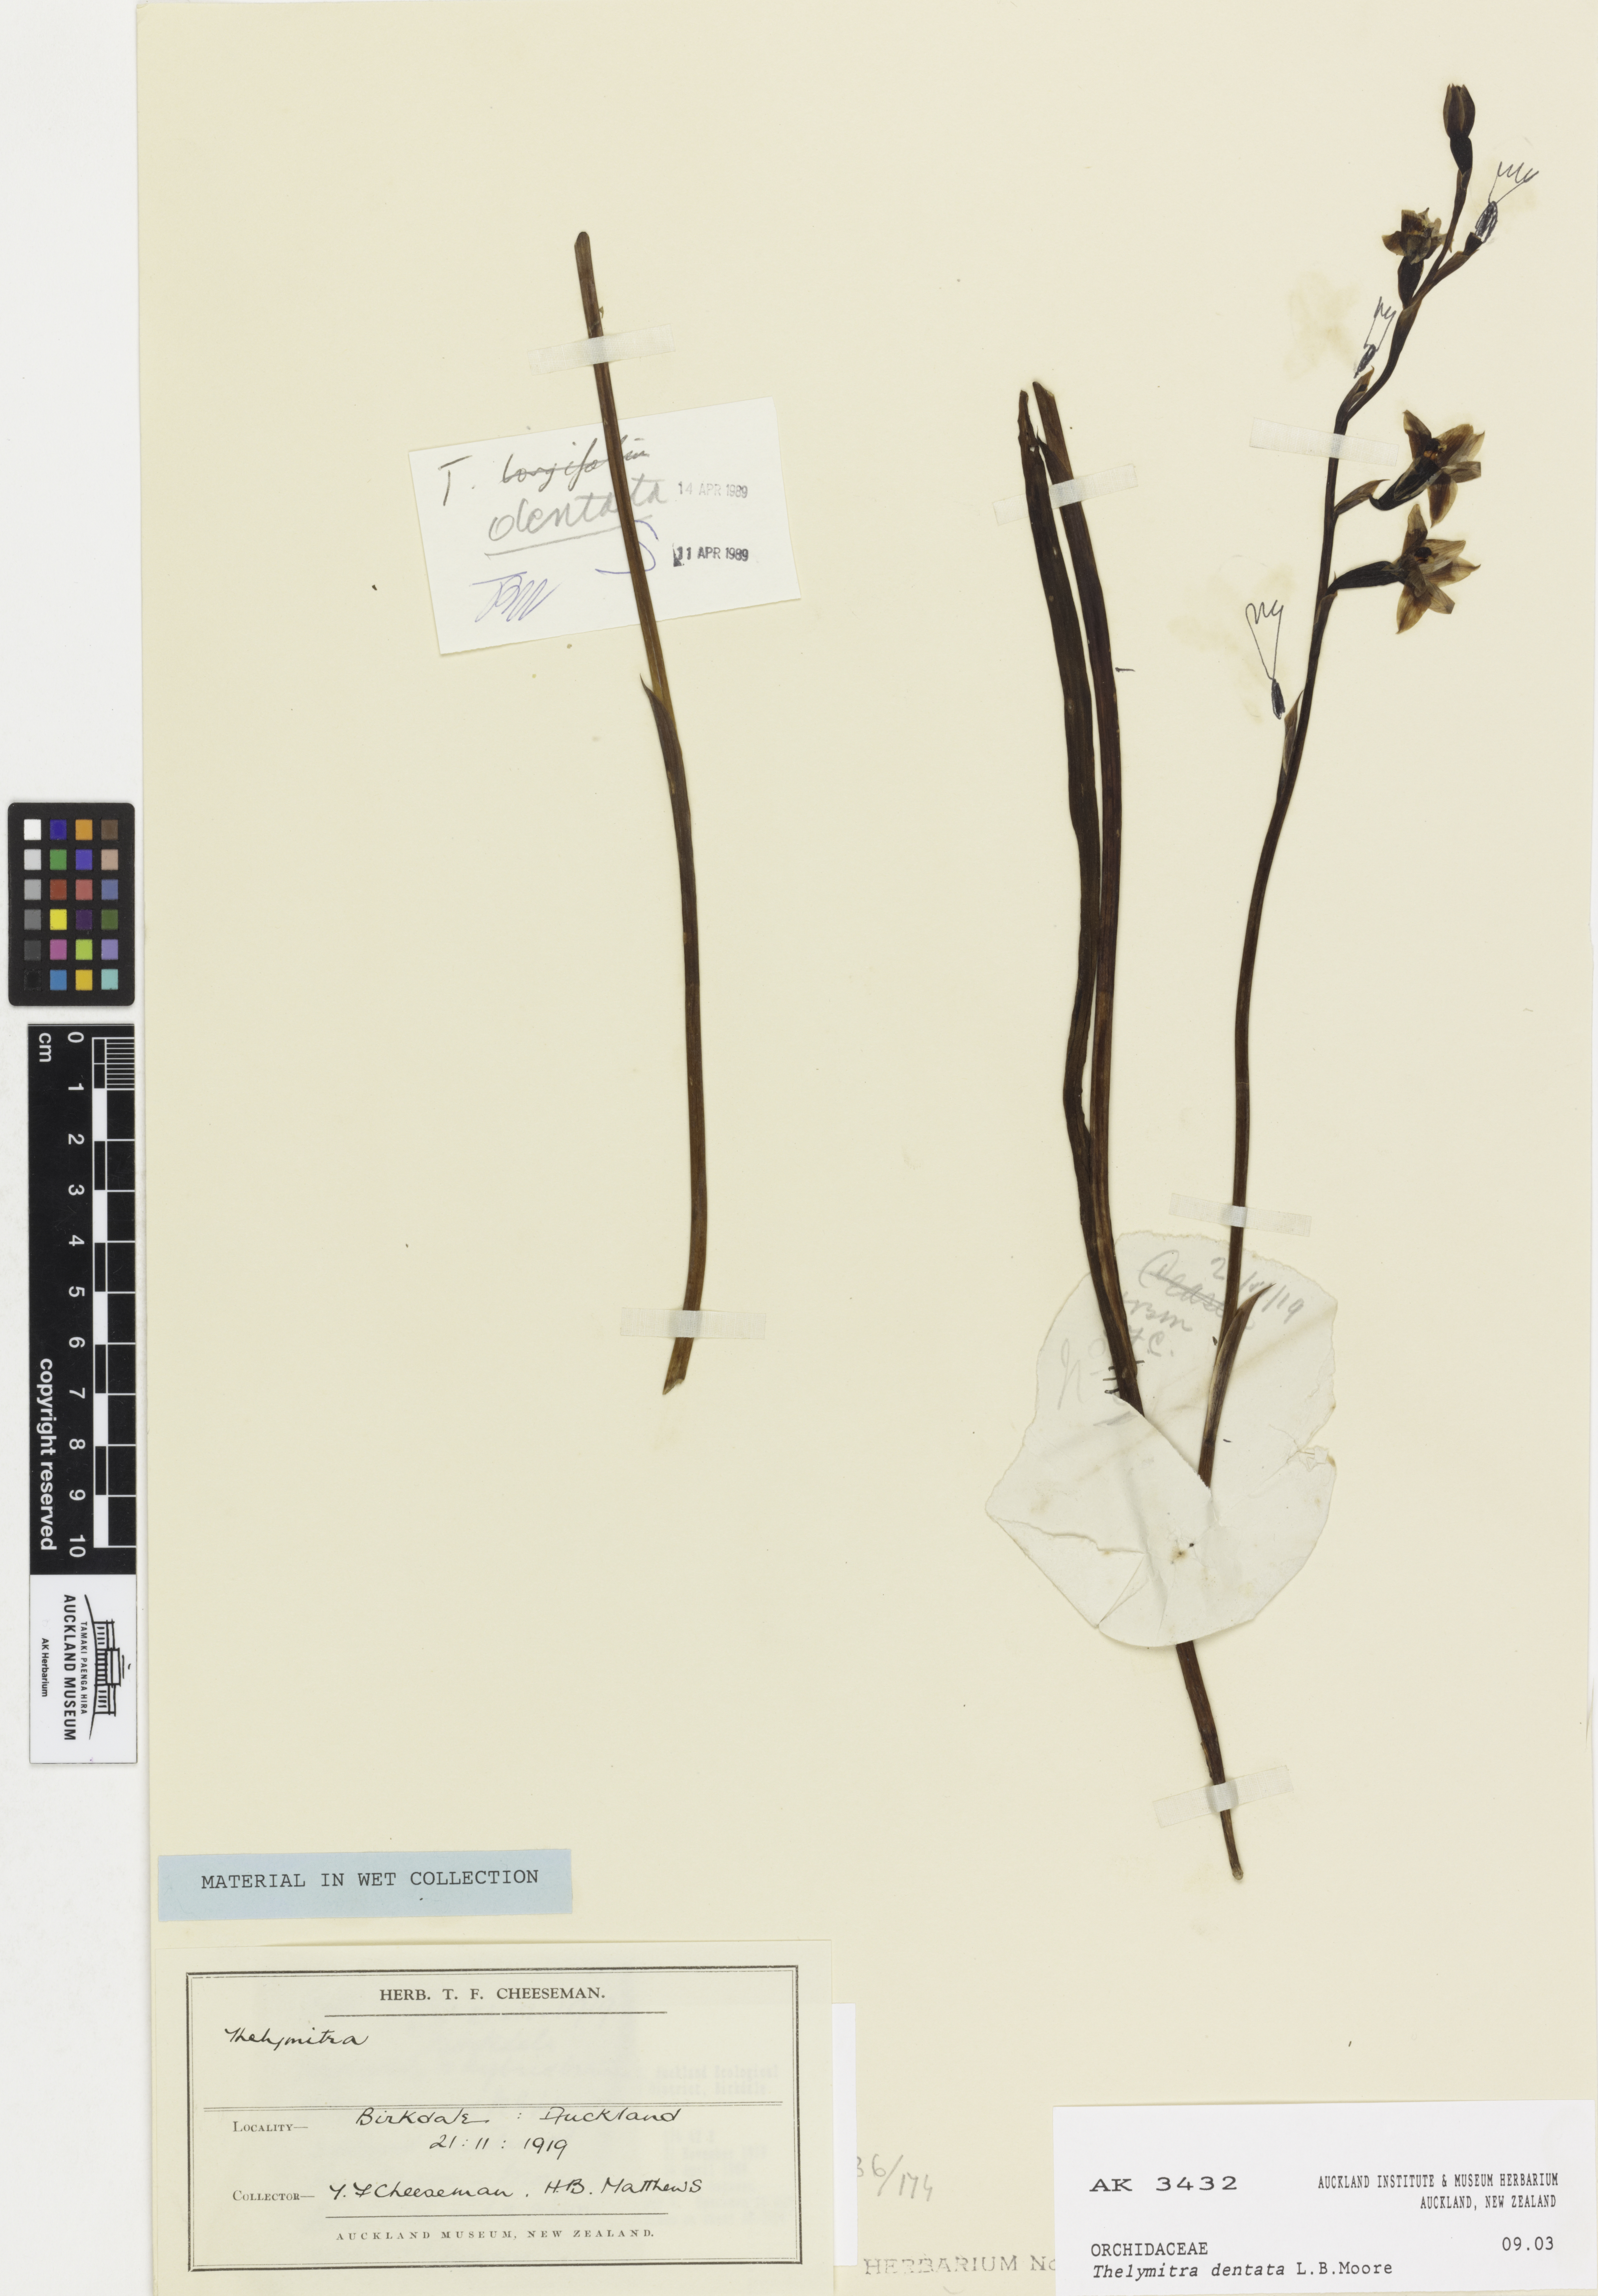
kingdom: Plantae
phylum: Tracheophyta
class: Liliopsida
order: Asparagales
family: Orchidaceae
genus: Thelymitra
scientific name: Thelymitra dentata
